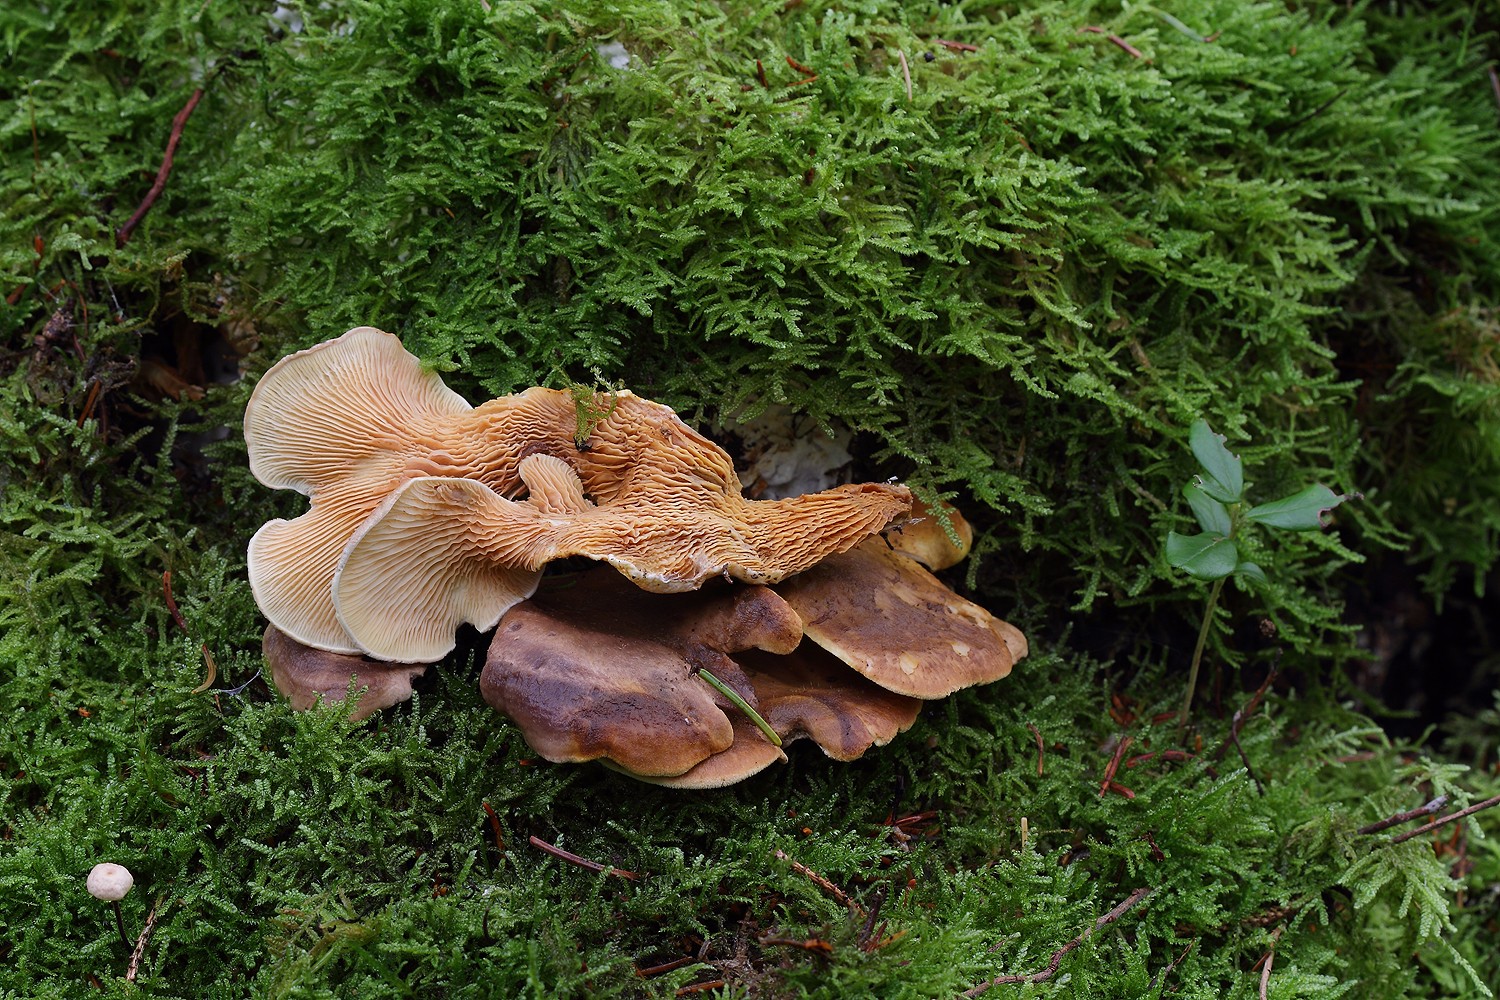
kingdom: Fungi
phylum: Basidiomycota
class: Agaricomycetes
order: Boletales
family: Tapinellaceae
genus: Tapinella
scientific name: Tapinella panuoides
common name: tømmer-viftesvamp
